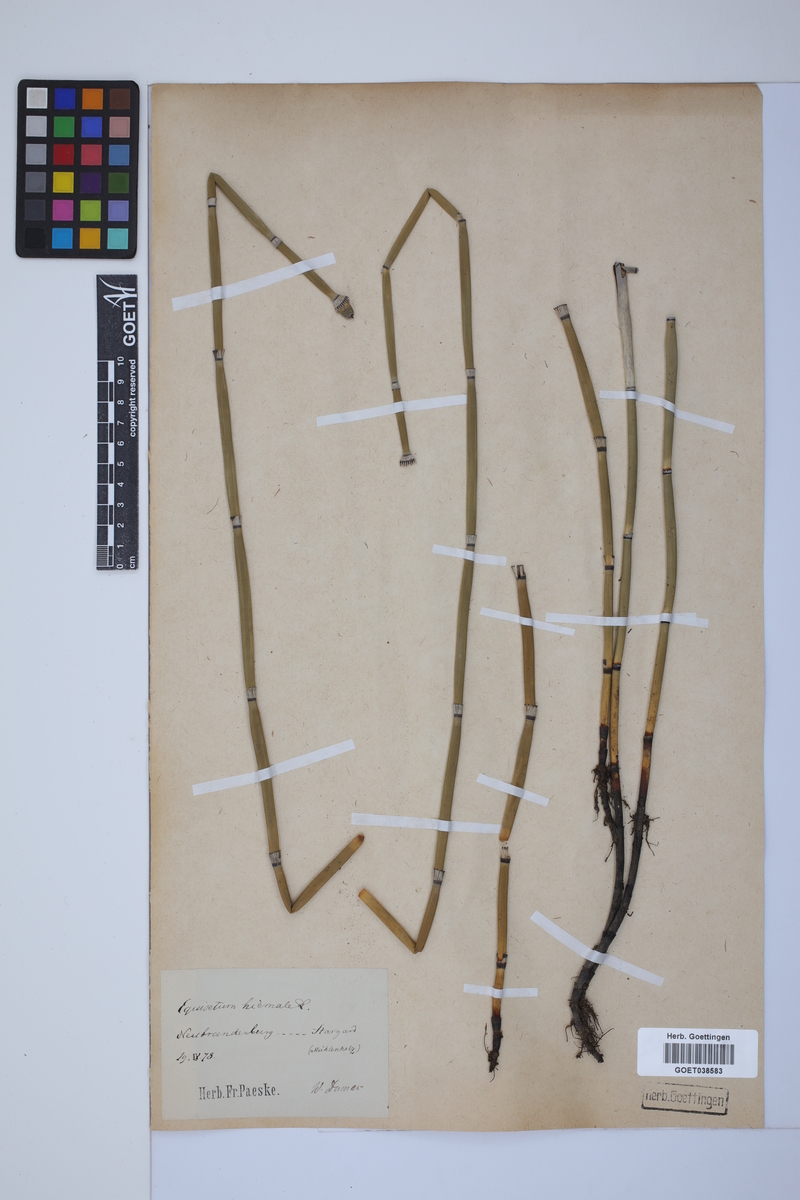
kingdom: Plantae
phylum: Tracheophyta
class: Polypodiopsida
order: Equisetales
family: Equisetaceae
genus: Equisetum
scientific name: Equisetum hyemale
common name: Rough horsetail
